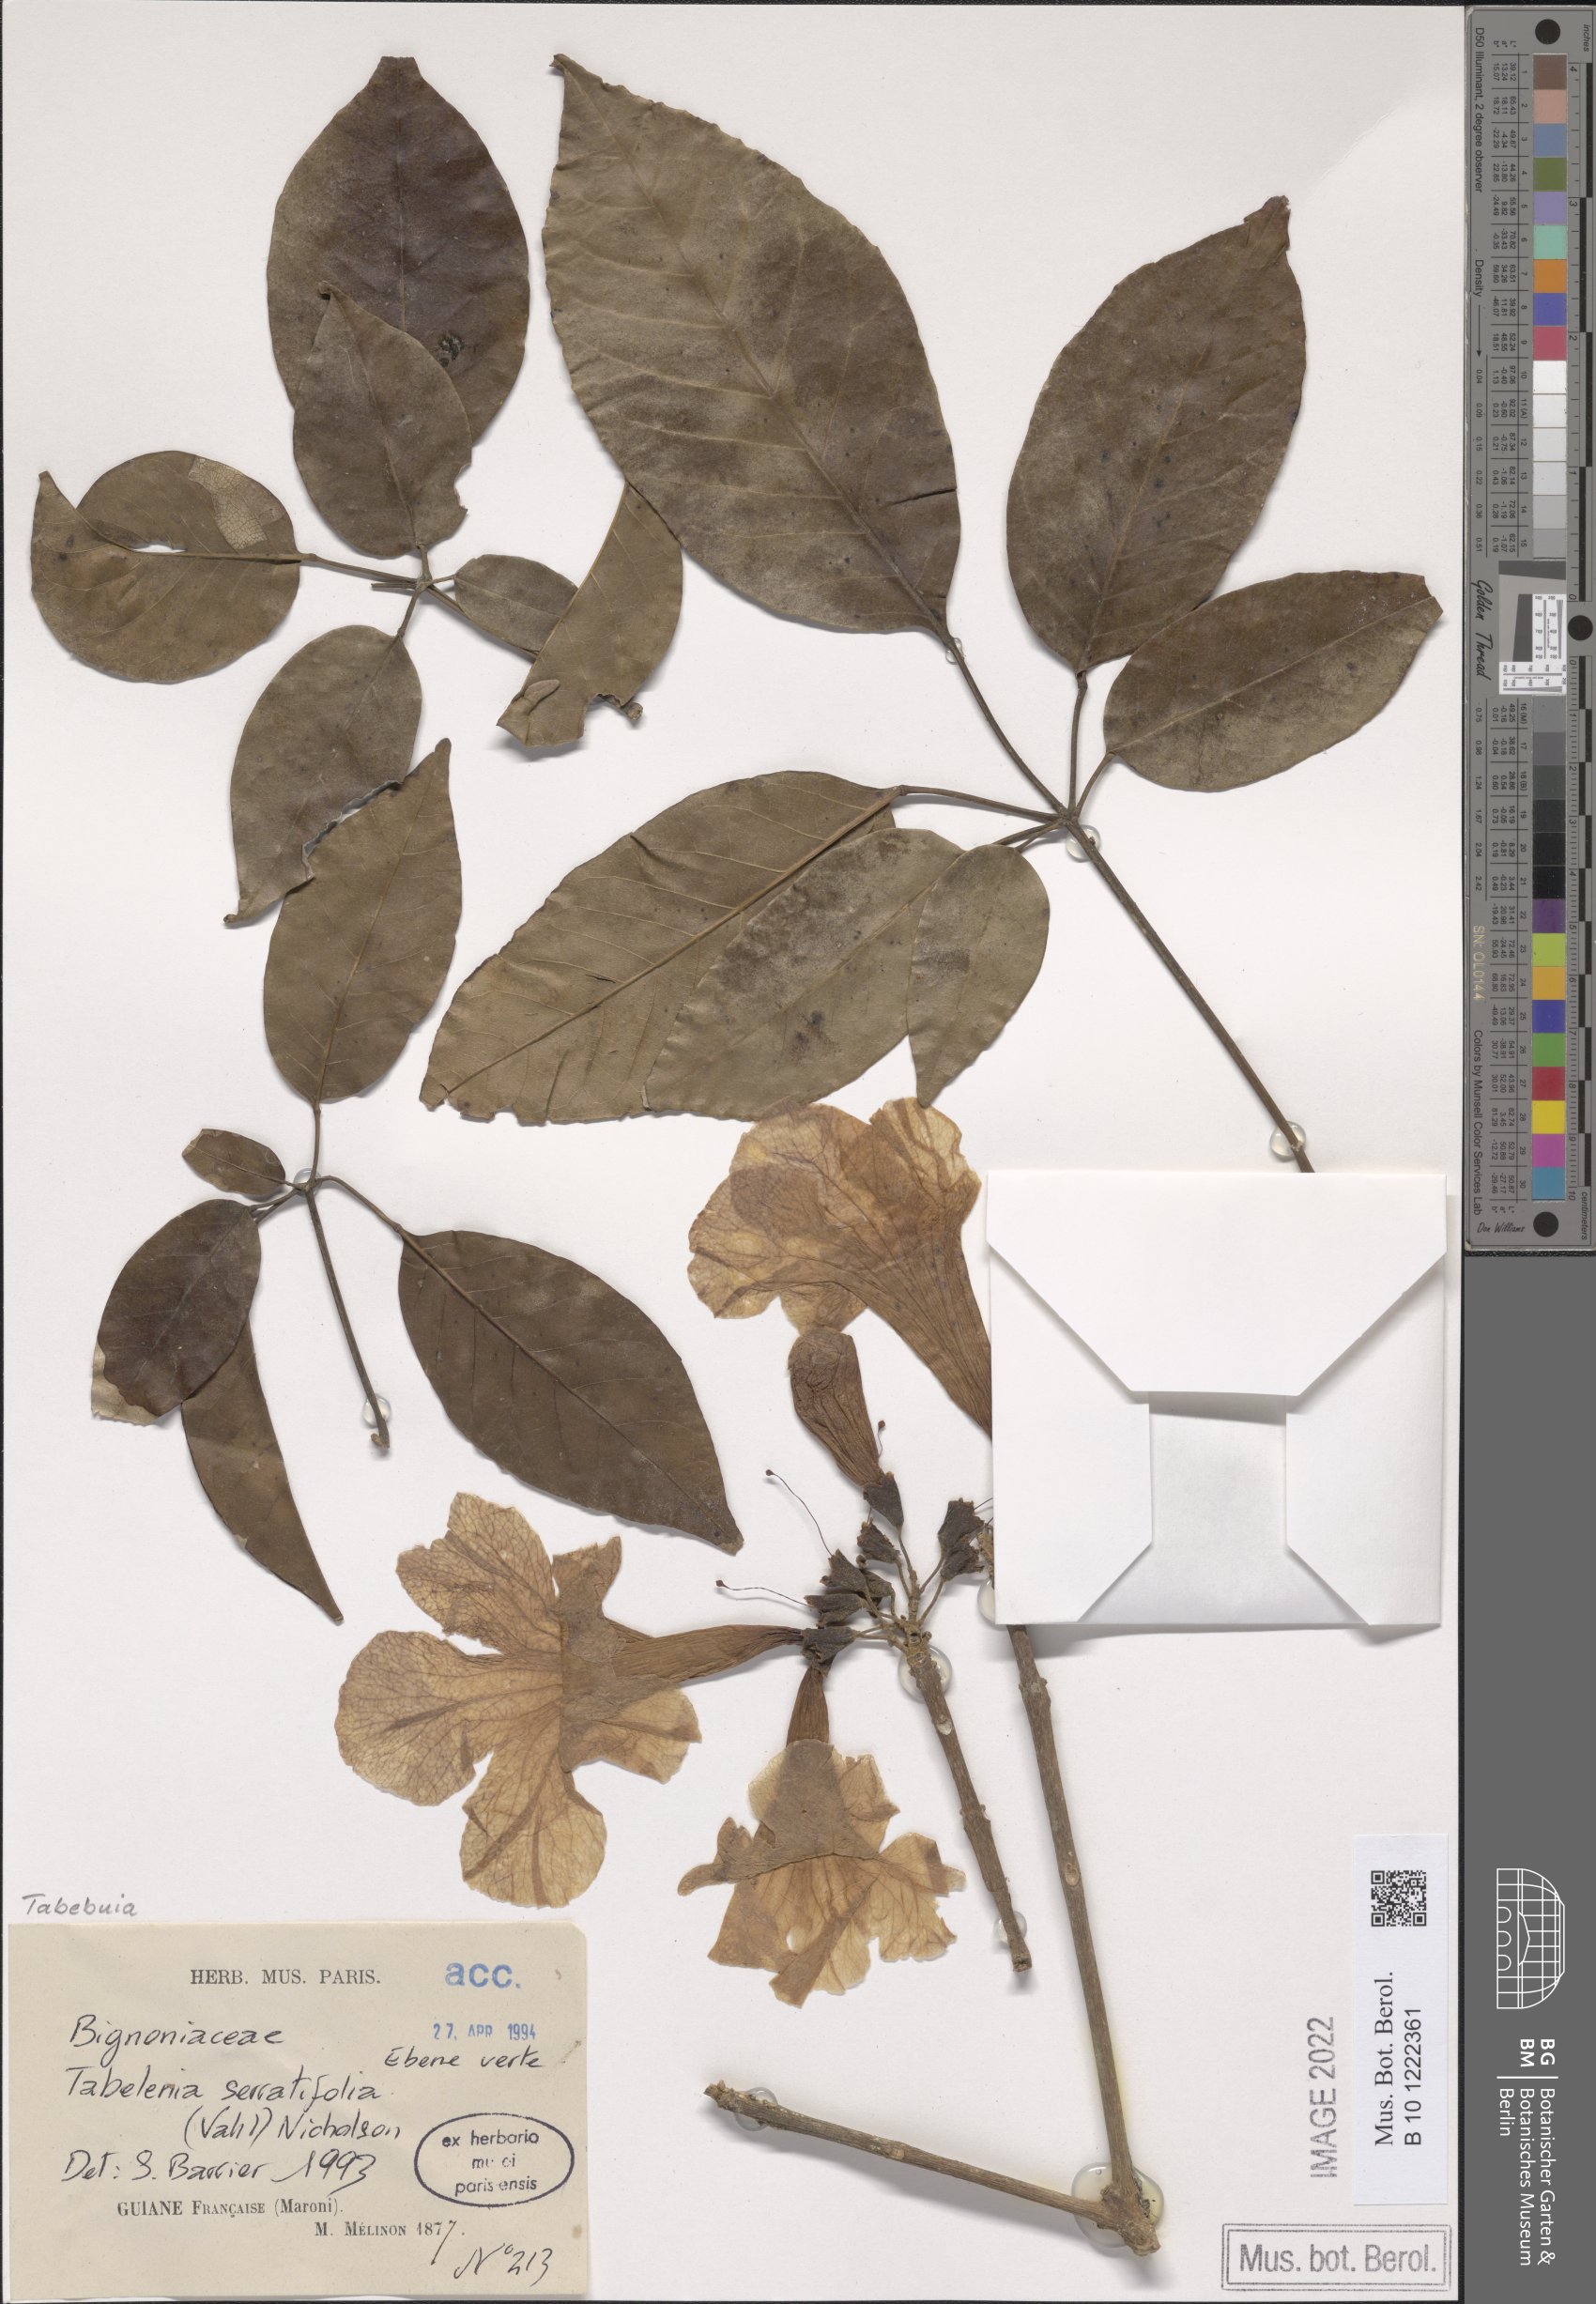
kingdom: Plantae
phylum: Tracheophyta
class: Magnoliopsida
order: Lamiales
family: Bignoniaceae
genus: Handroanthus
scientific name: Handroanthus serratifolius
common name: Yellow ipe
